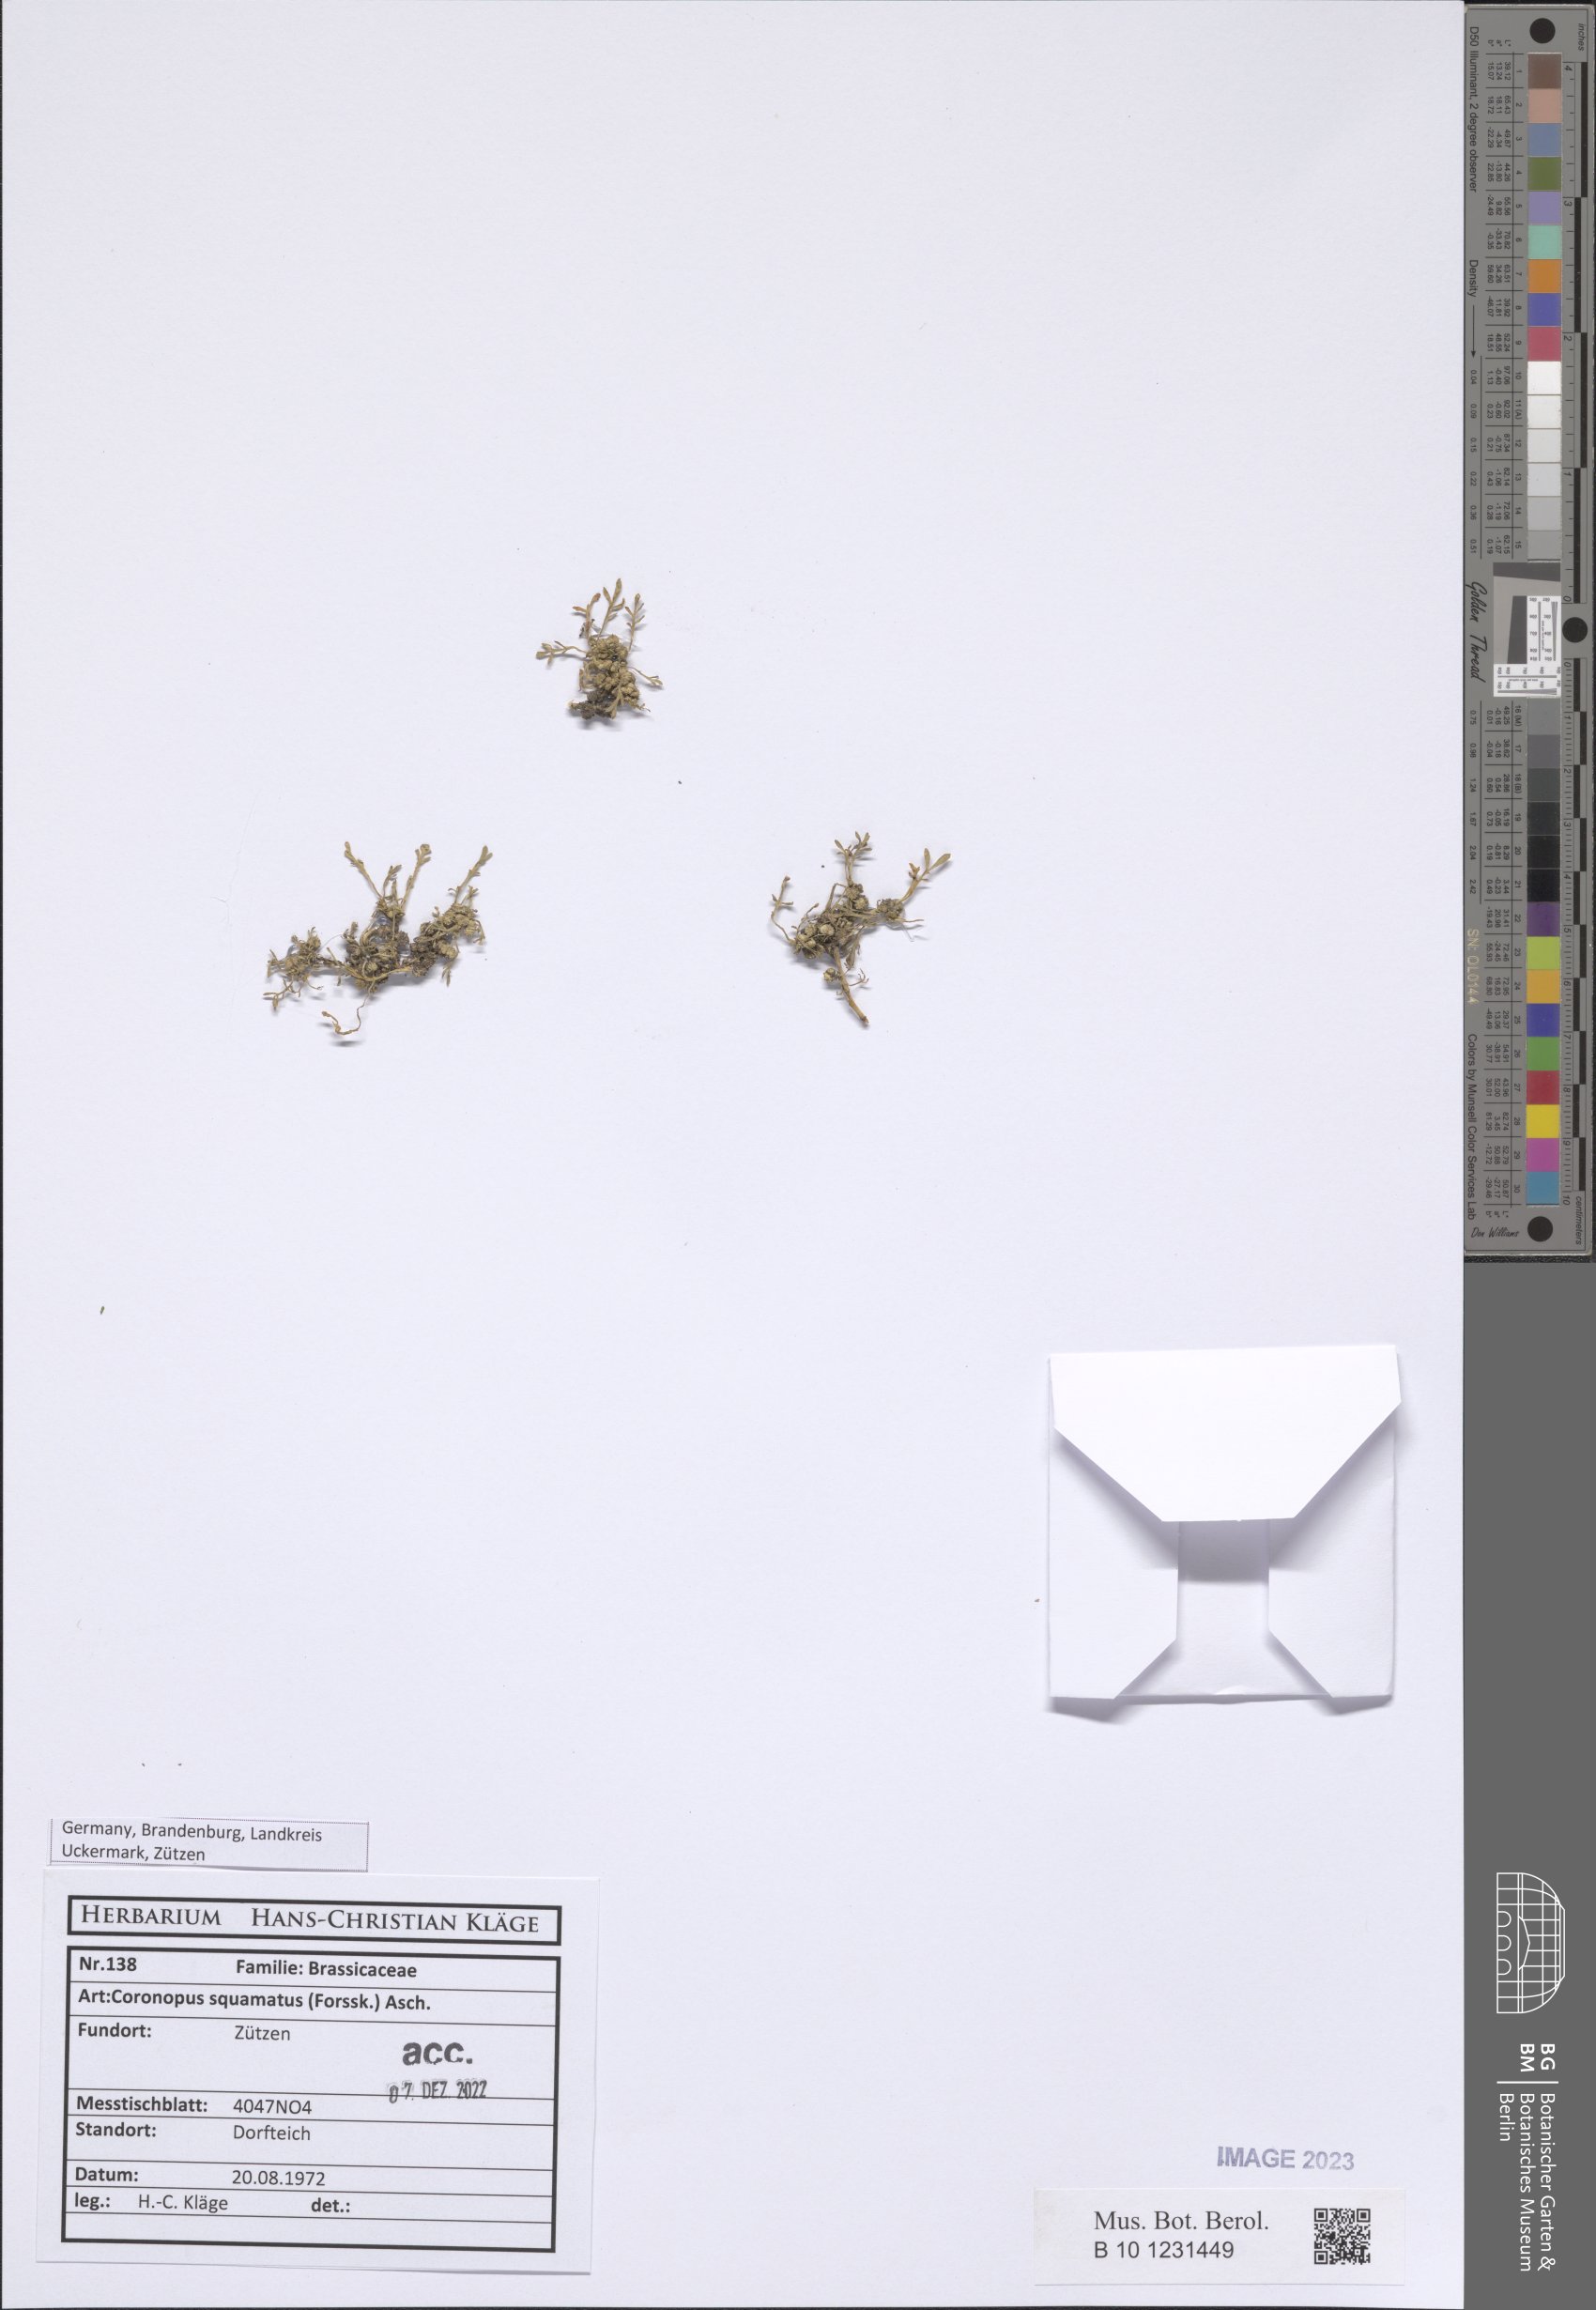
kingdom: Plantae
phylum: Tracheophyta
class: Magnoliopsida
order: Brassicales
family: Brassicaceae
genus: Lepidium
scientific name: Lepidium coronopus
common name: Greater swinecress
